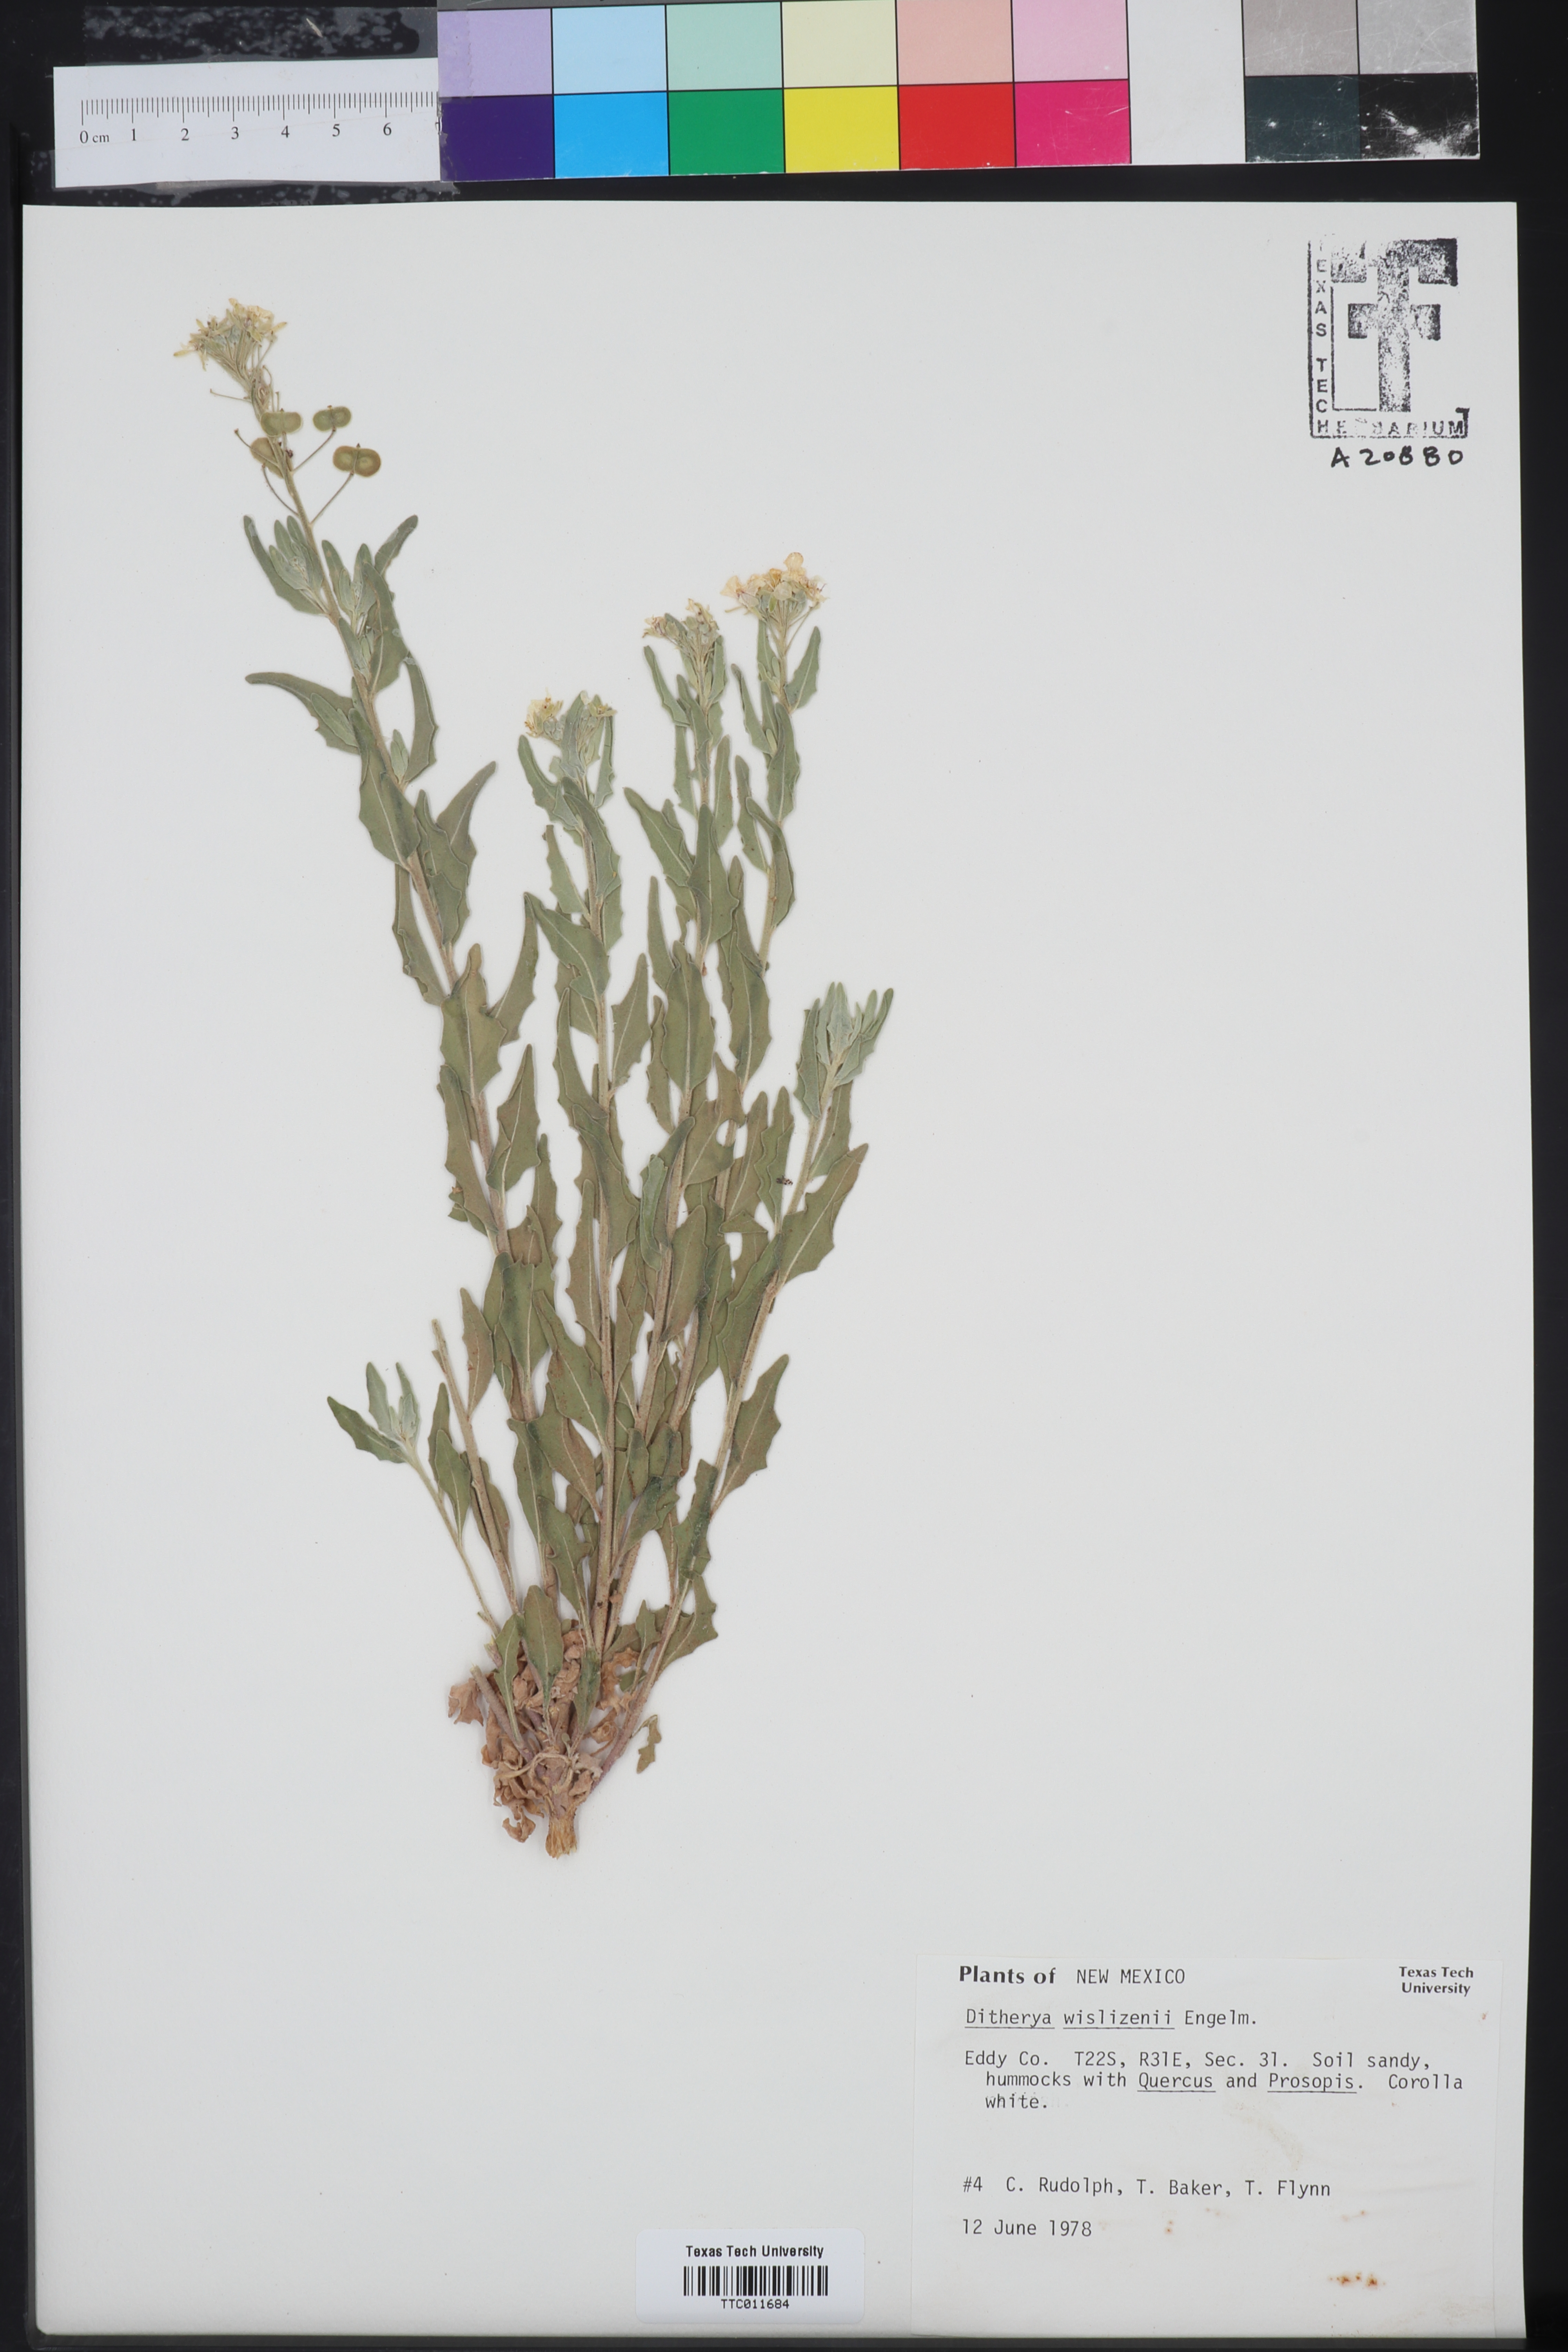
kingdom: Plantae
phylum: Tracheophyta
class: Magnoliopsida
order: Brassicales
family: Brassicaceae
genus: Dimorphocarpa
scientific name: Dimorphocarpa wislizenii
